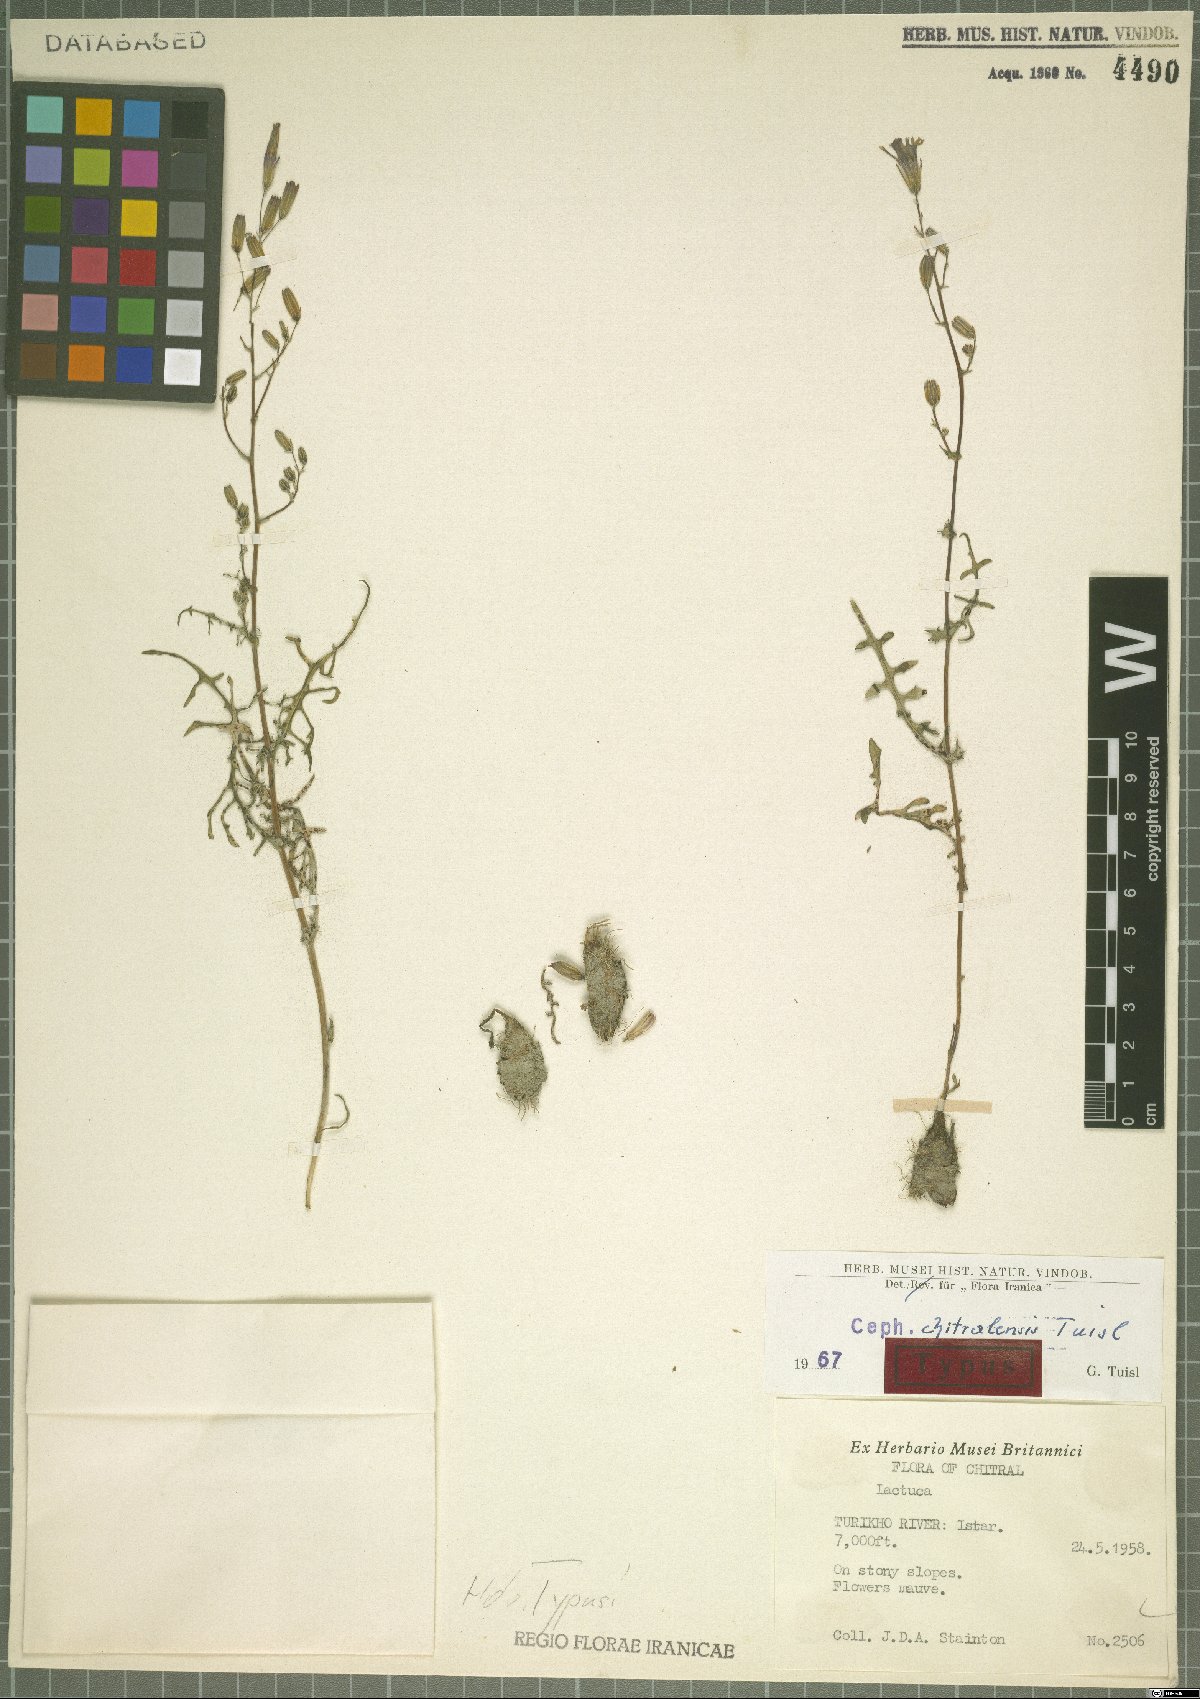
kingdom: Plantae
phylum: Tracheophyta
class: Magnoliopsida
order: Asterales
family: Asteraceae
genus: Lactuca
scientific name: Lactuca chitralensis
